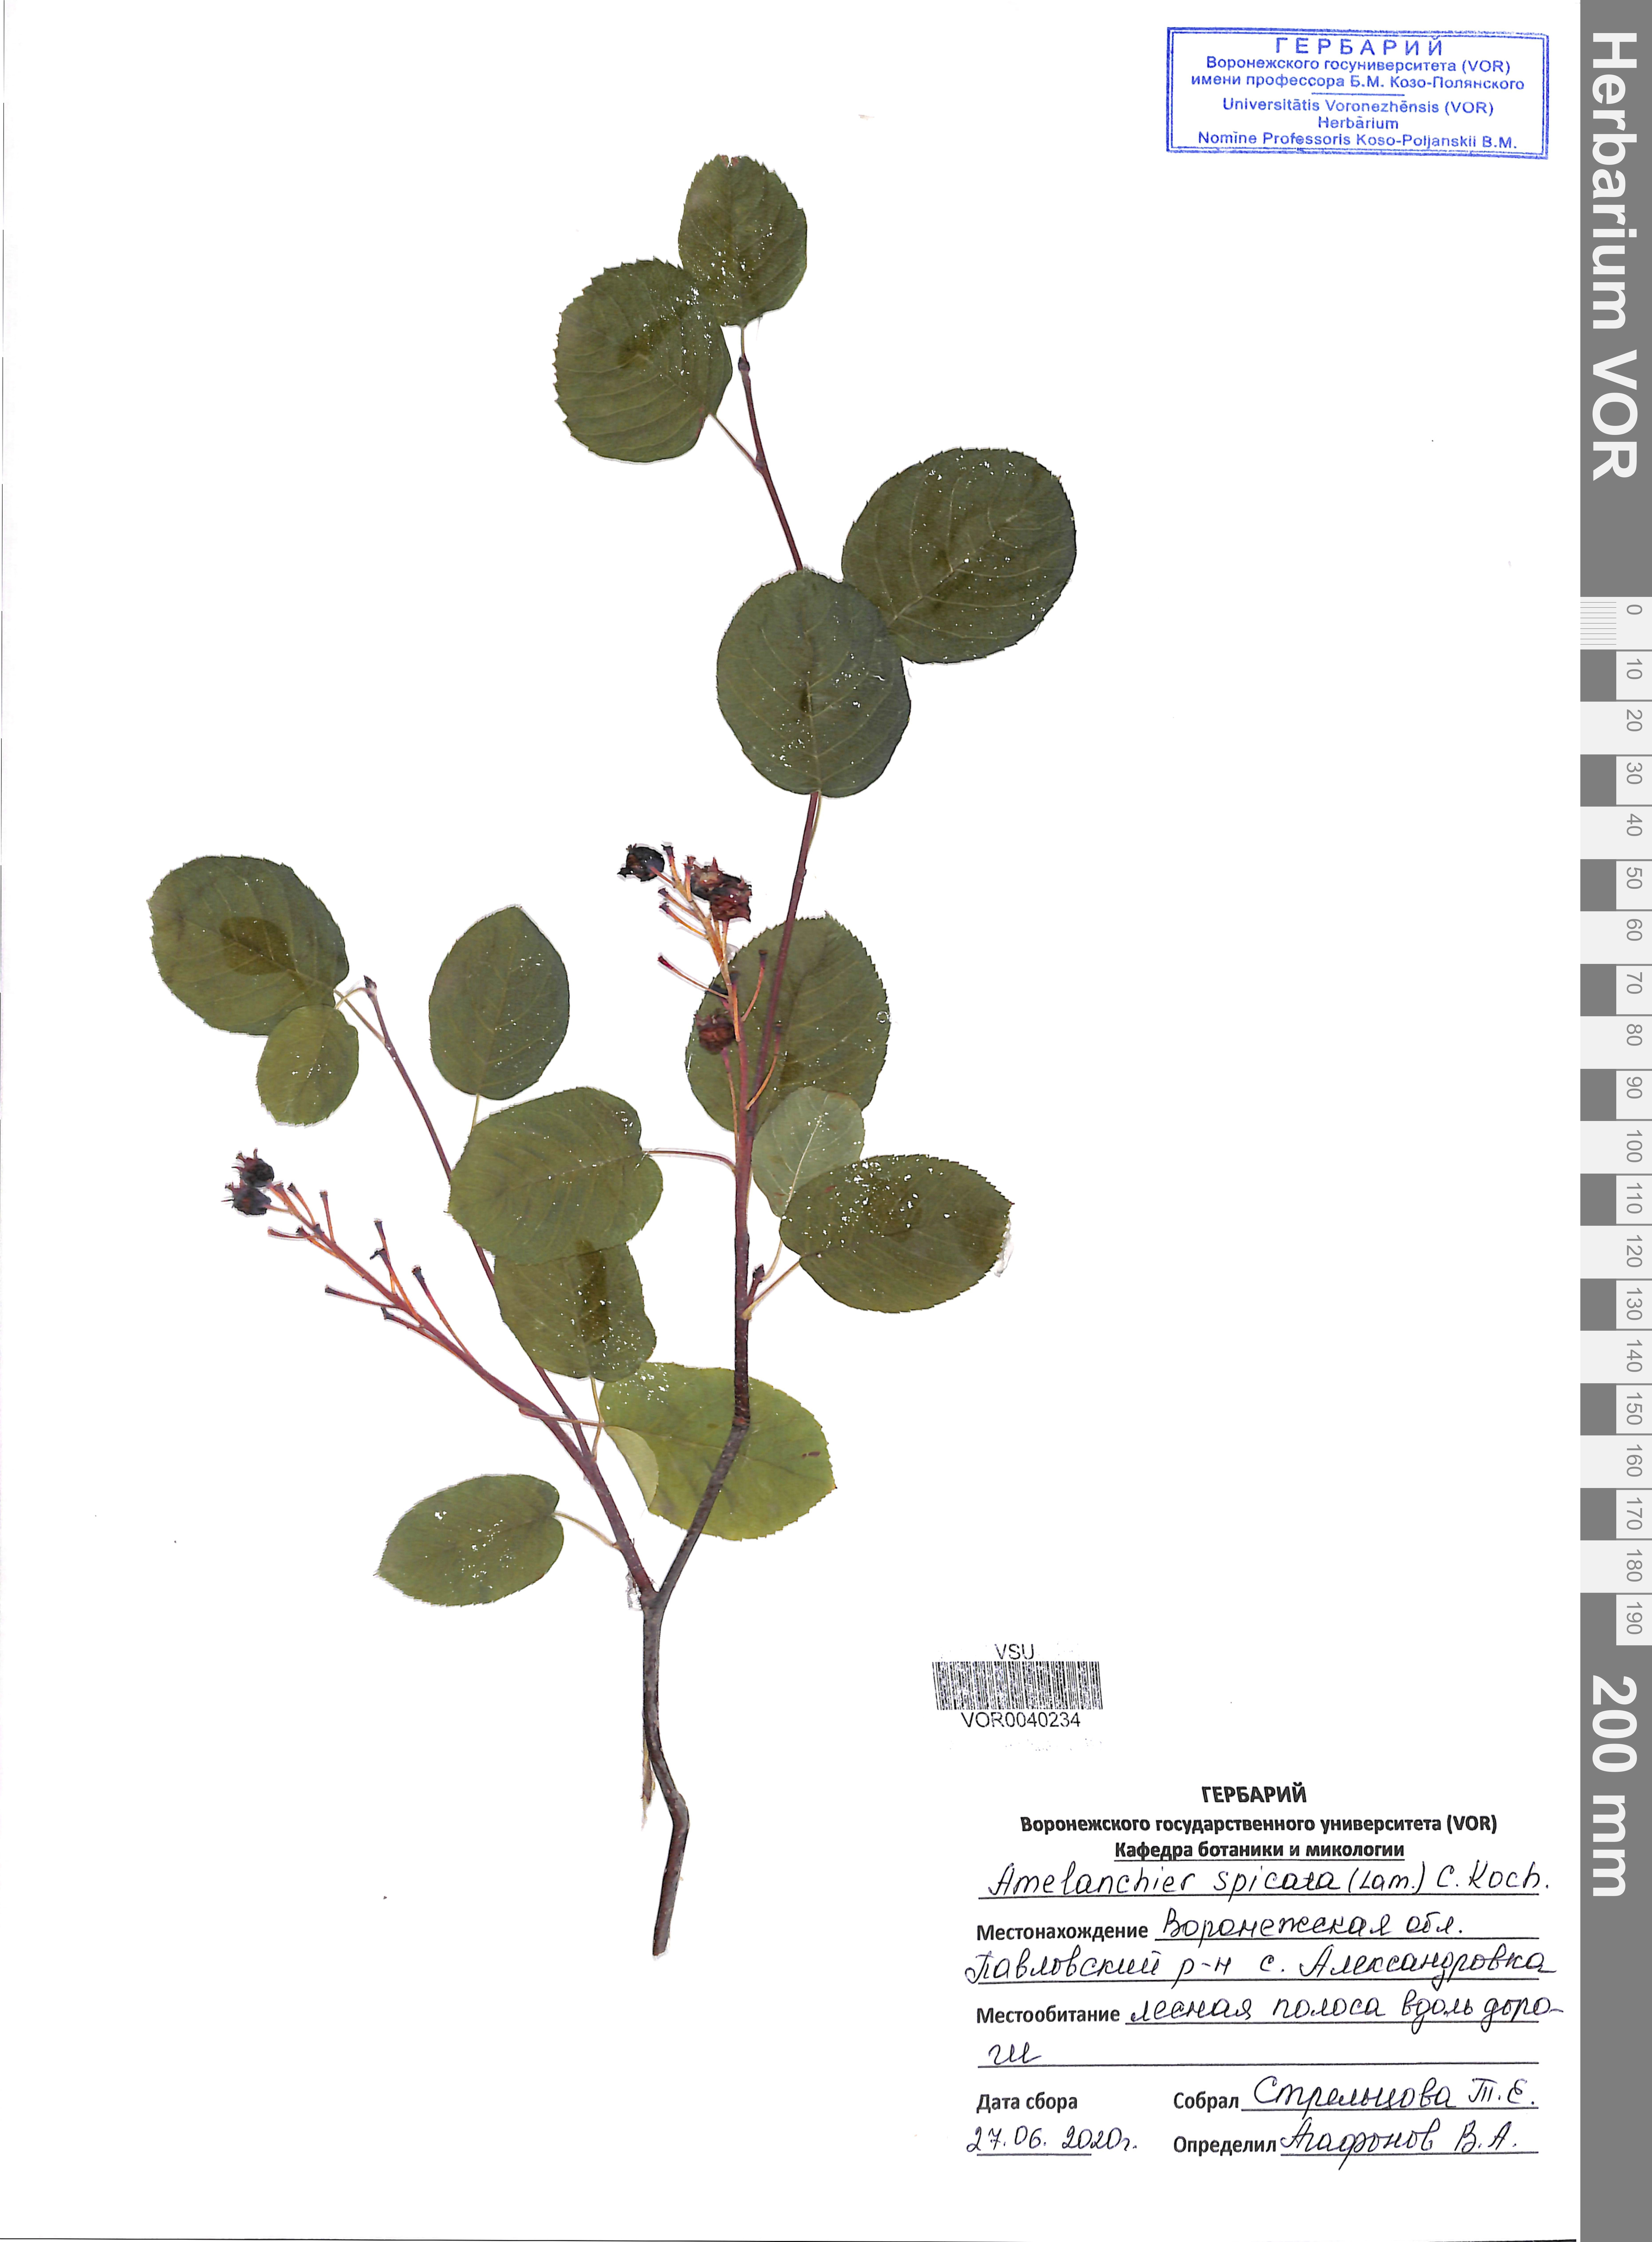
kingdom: Plantae
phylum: Tracheophyta
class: Magnoliopsida
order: Rosales
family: Rosaceae
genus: Amelanchier
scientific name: Amelanchier humilis
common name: Low juneberry
